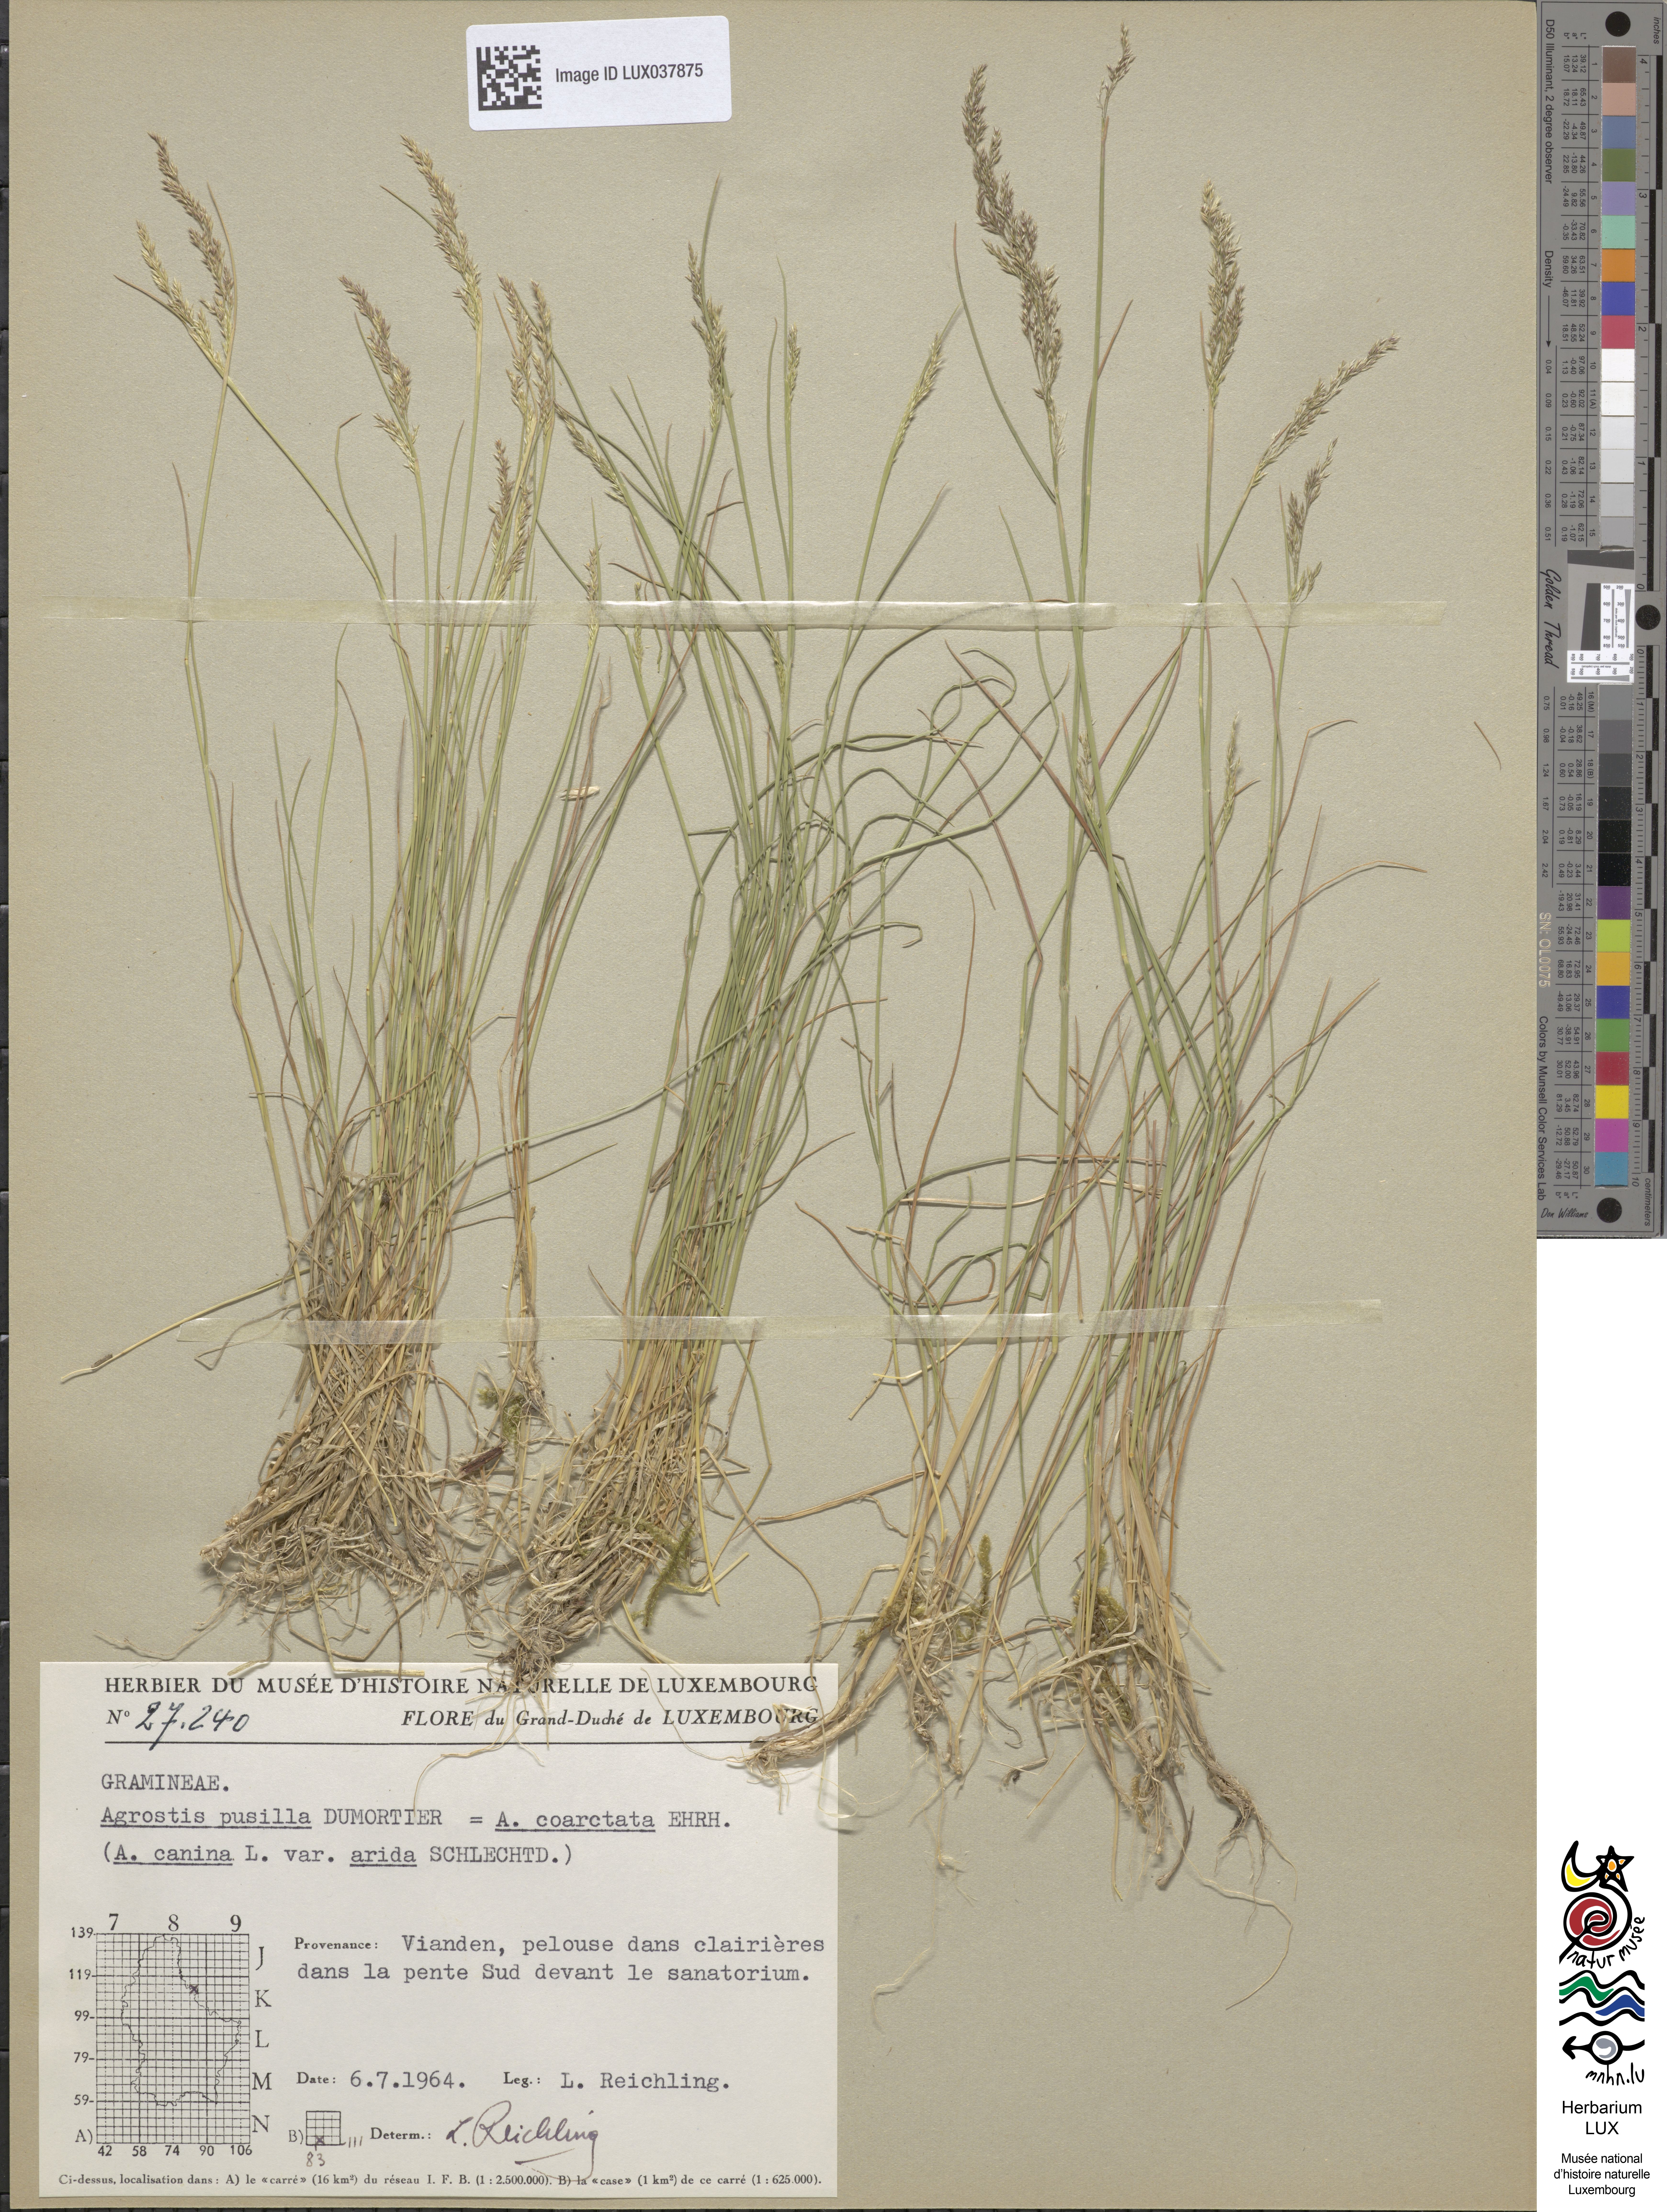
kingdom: Plantae
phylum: Tracheophyta
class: Liliopsida
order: Poales
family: Poaceae
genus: Agrostis
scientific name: Agrostis vinealis
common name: Brown bent
